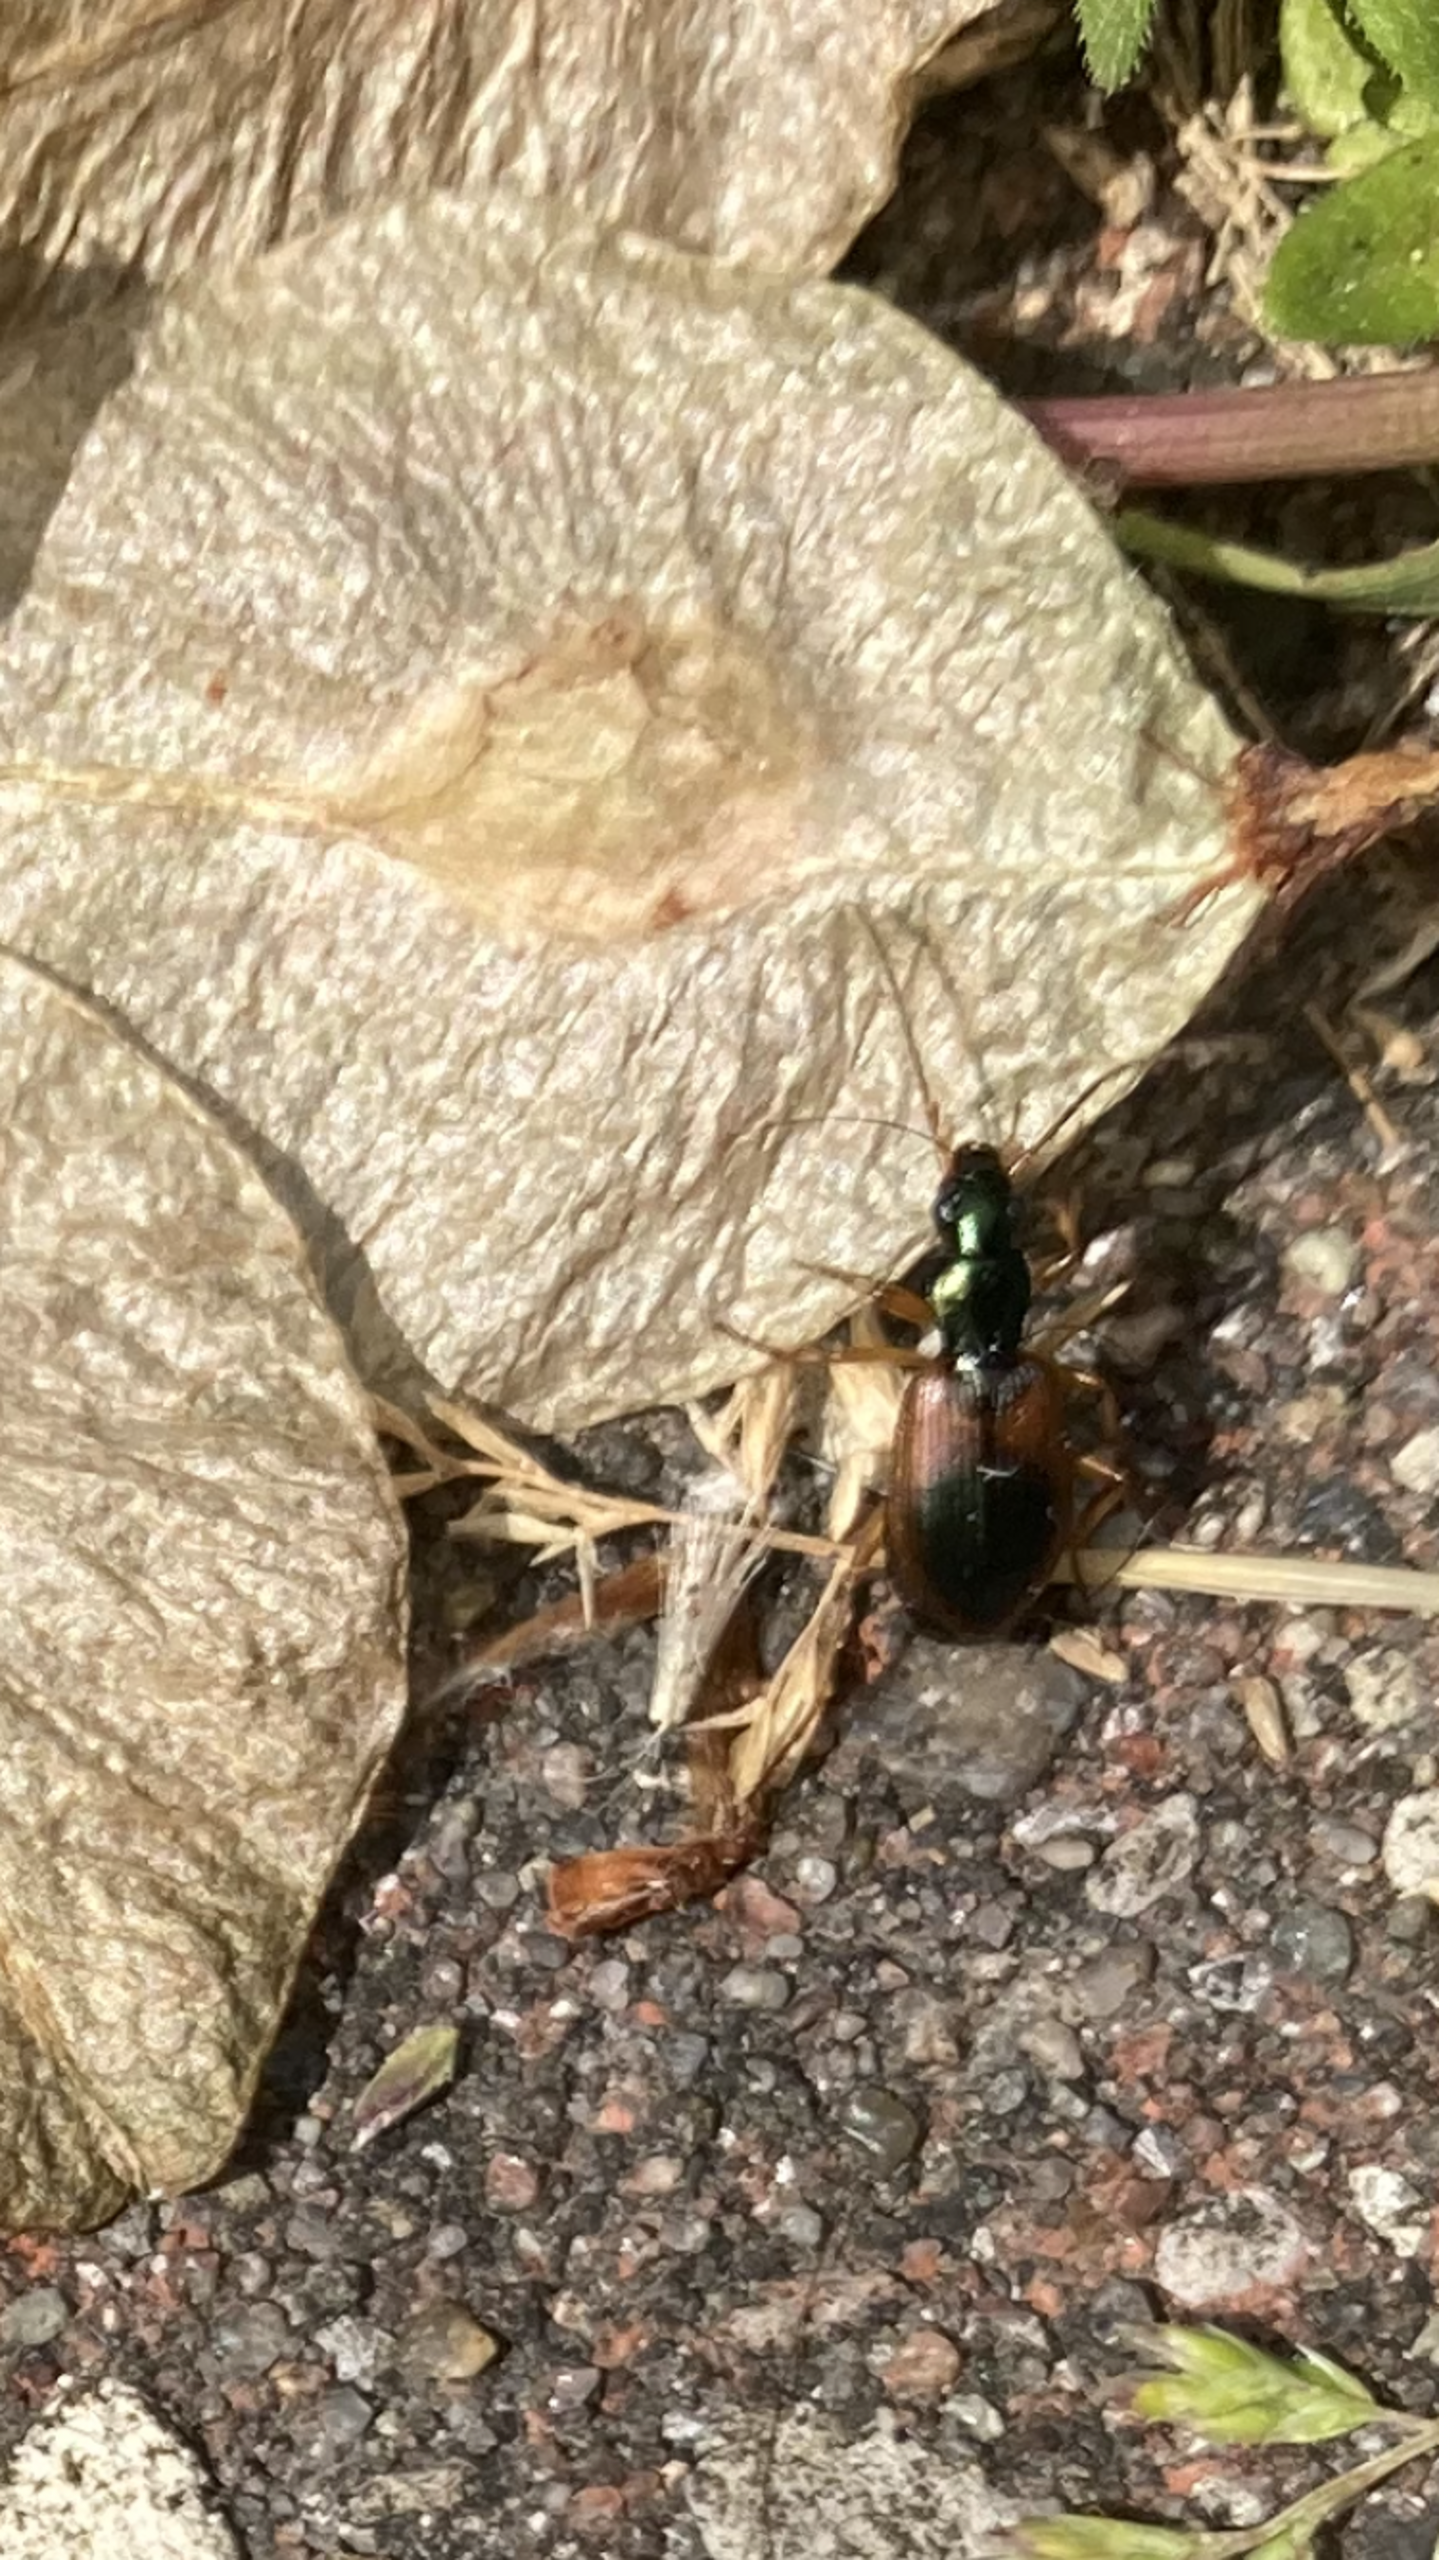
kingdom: Animalia
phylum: Arthropoda
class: Insecta
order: Coleoptera
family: Carabidae
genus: Anchomenus
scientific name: Anchomenus dorsalis
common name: Spraglet kvikløber
